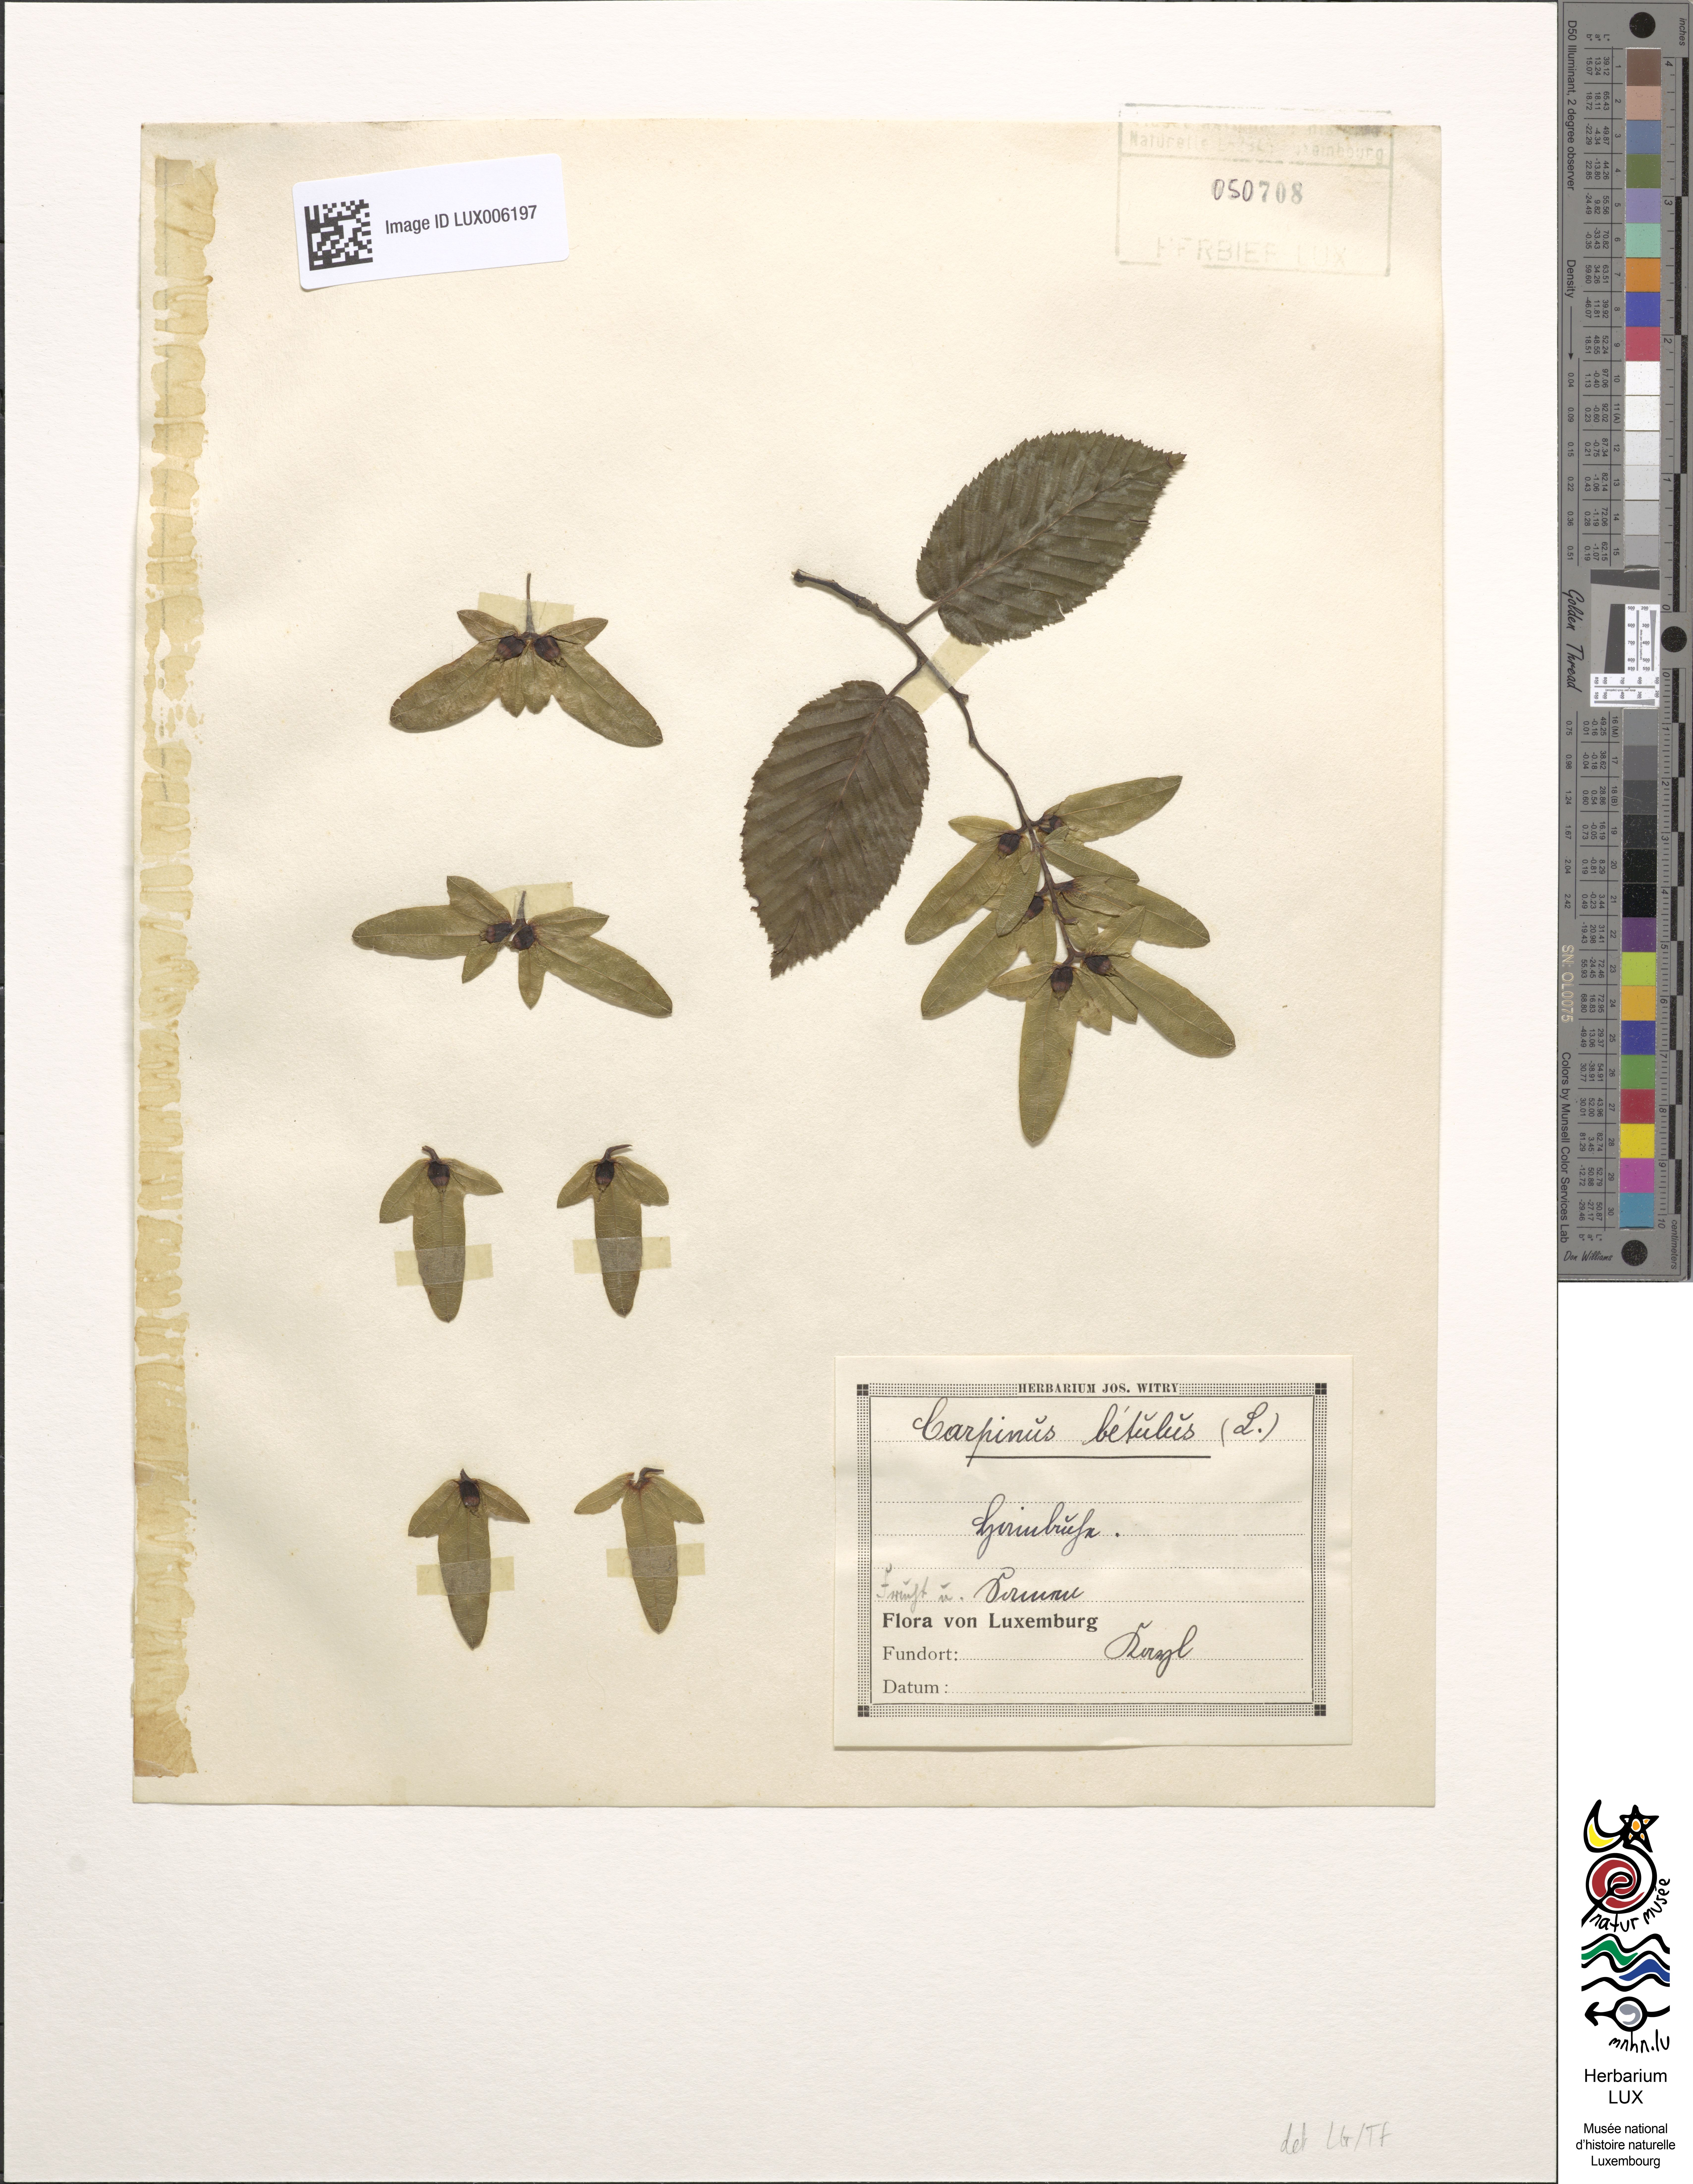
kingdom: Plantae
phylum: Tracheophyta
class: Magnoliopsida
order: Fagales
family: Betulaceae
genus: Carpinus
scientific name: Carpinus betulus
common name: Hornbeam
